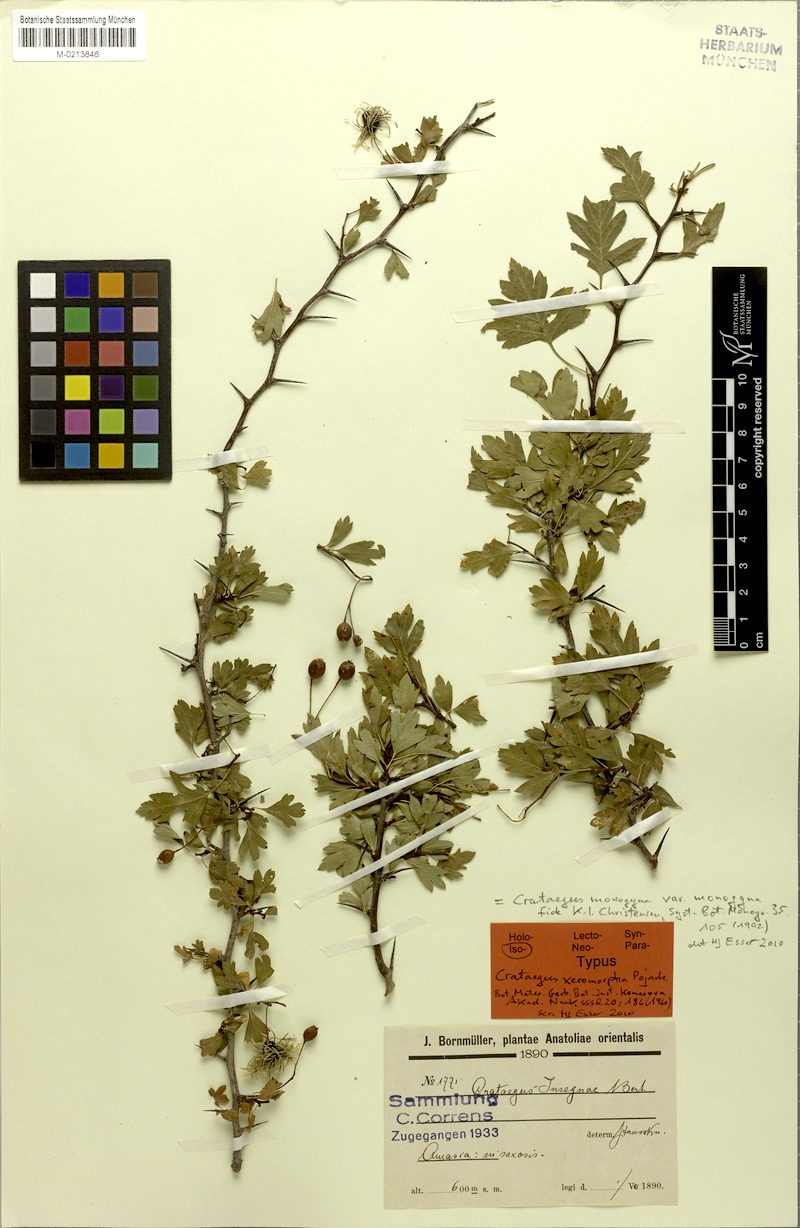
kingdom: Plantae
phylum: Tracheophyta
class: Magnoliopsida
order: Rosales
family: Rosaceae
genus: Crataegus
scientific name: Crataegus monogyna
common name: Hawthorn
